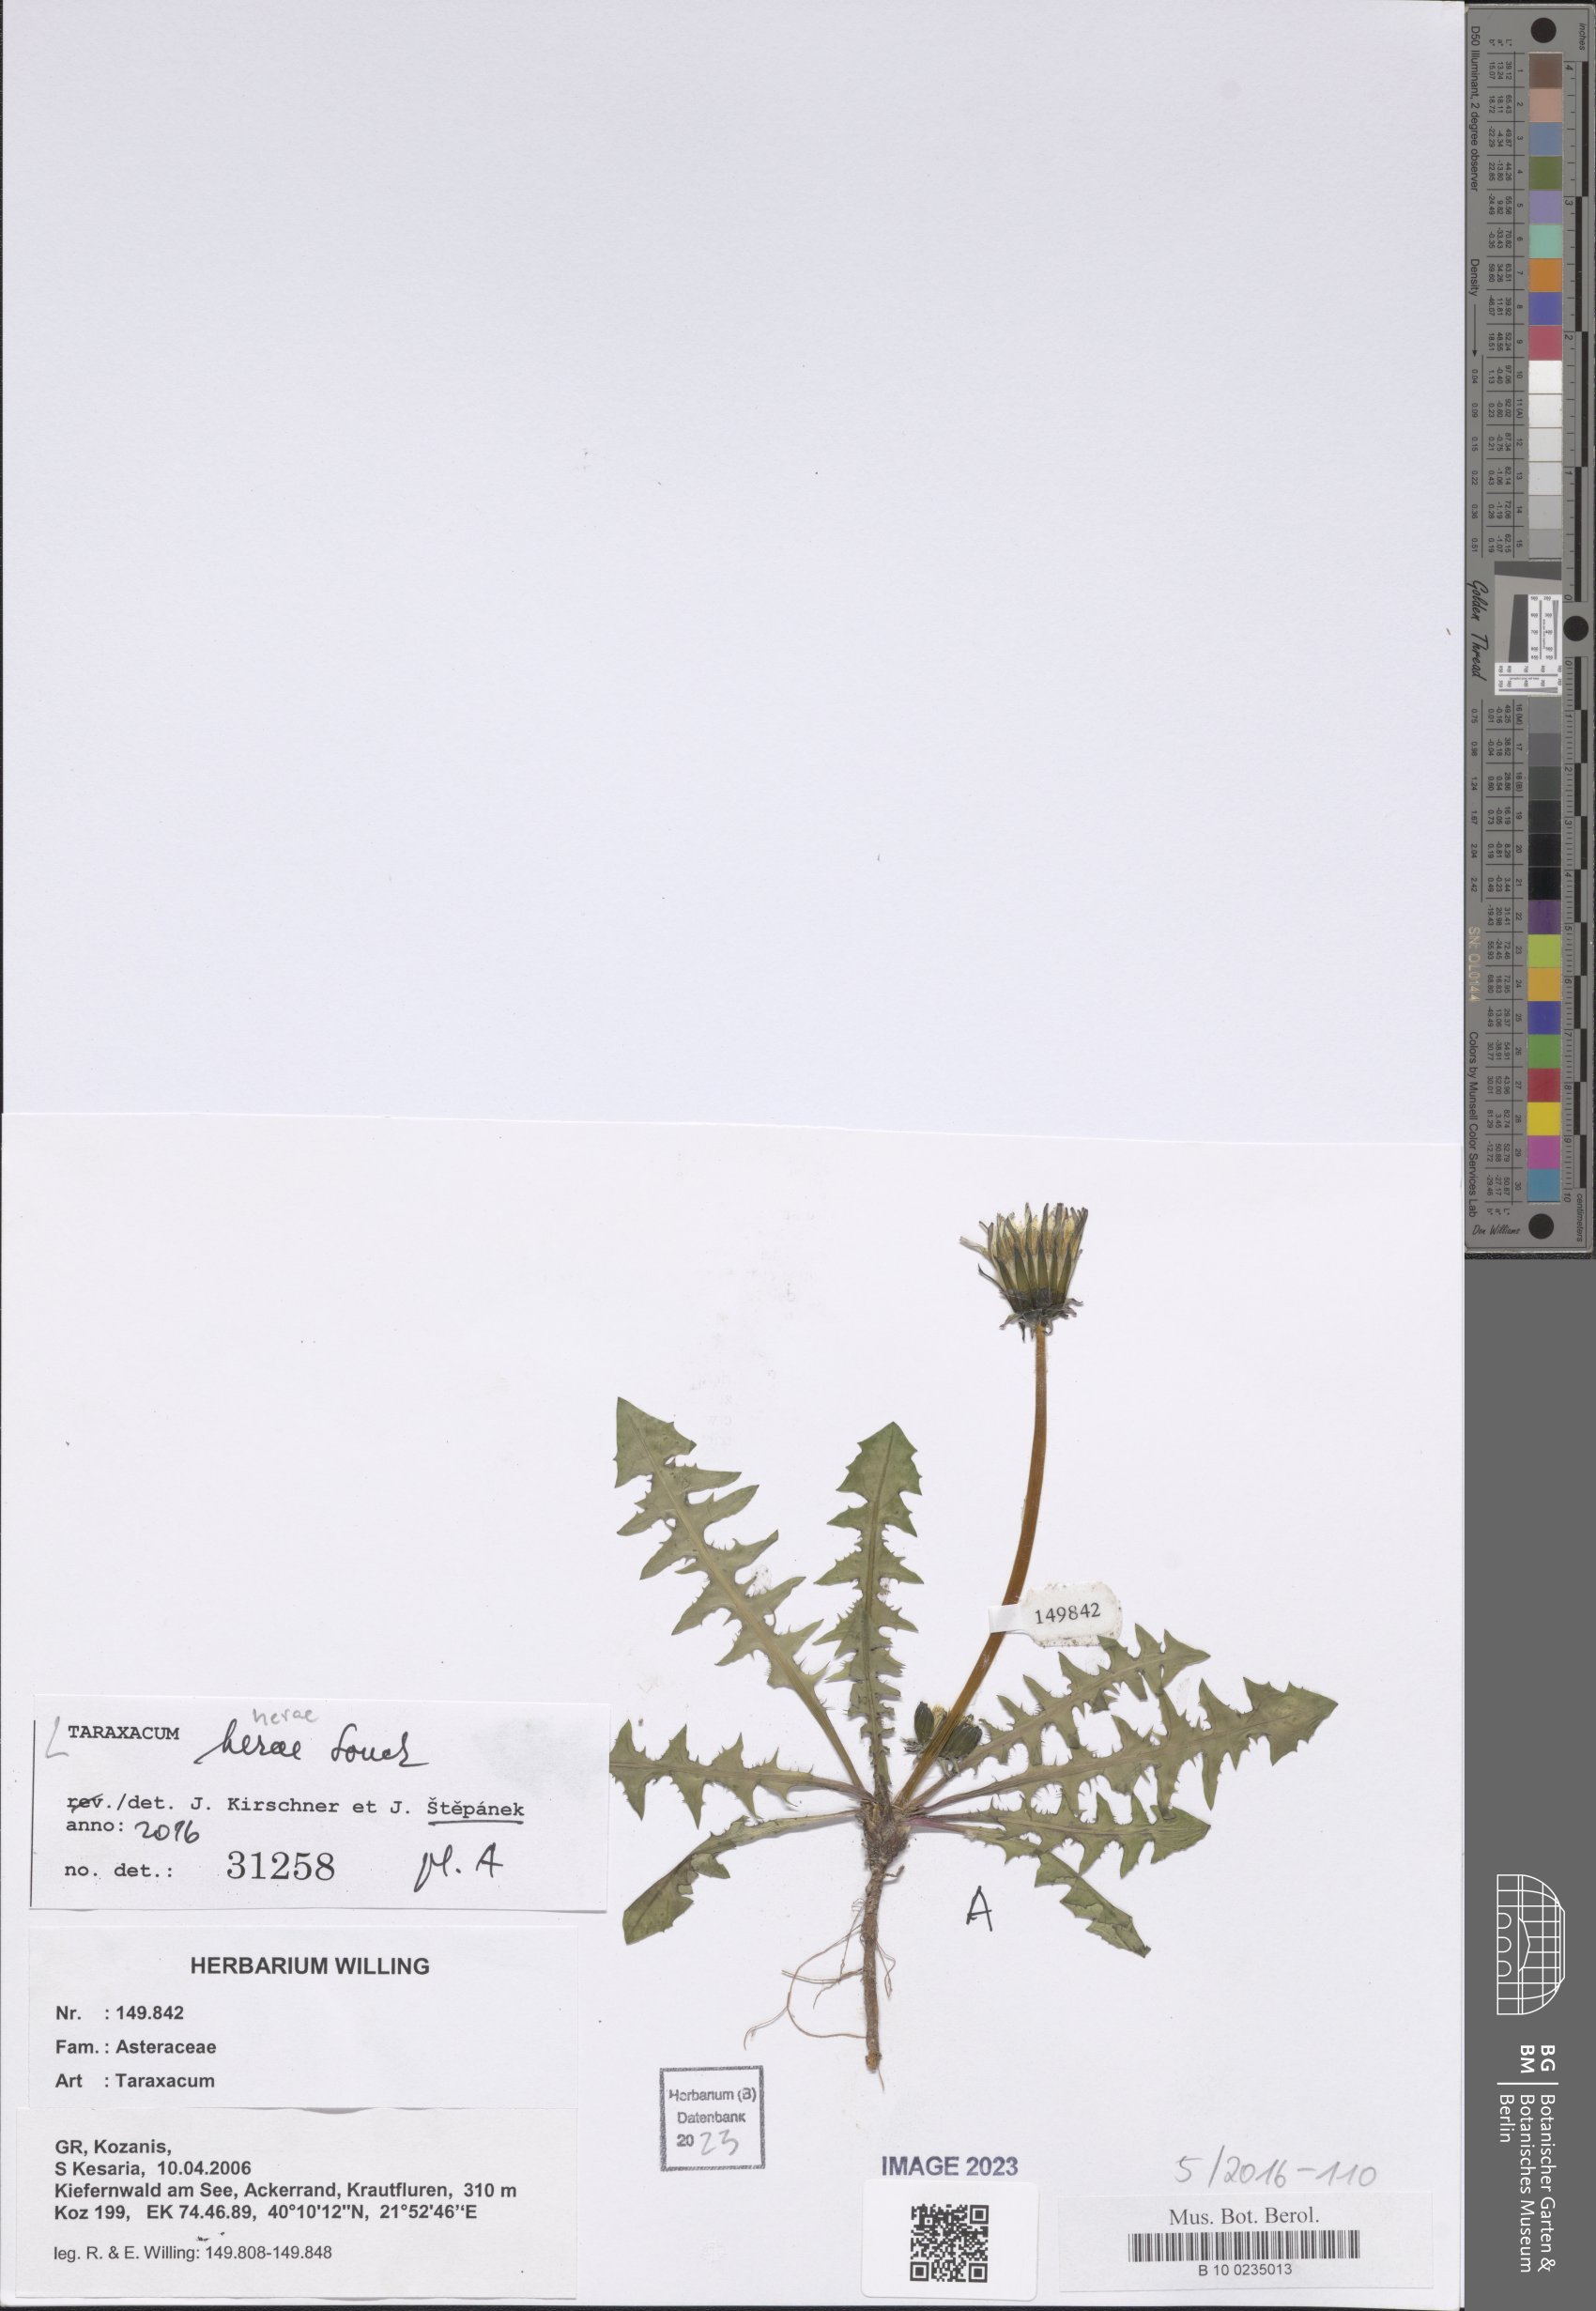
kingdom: Plantae
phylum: Tracheophyta
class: Magnoliopsida
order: Asterales
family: Asteraceae
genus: Taraxacum
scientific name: Taraxacum herae
